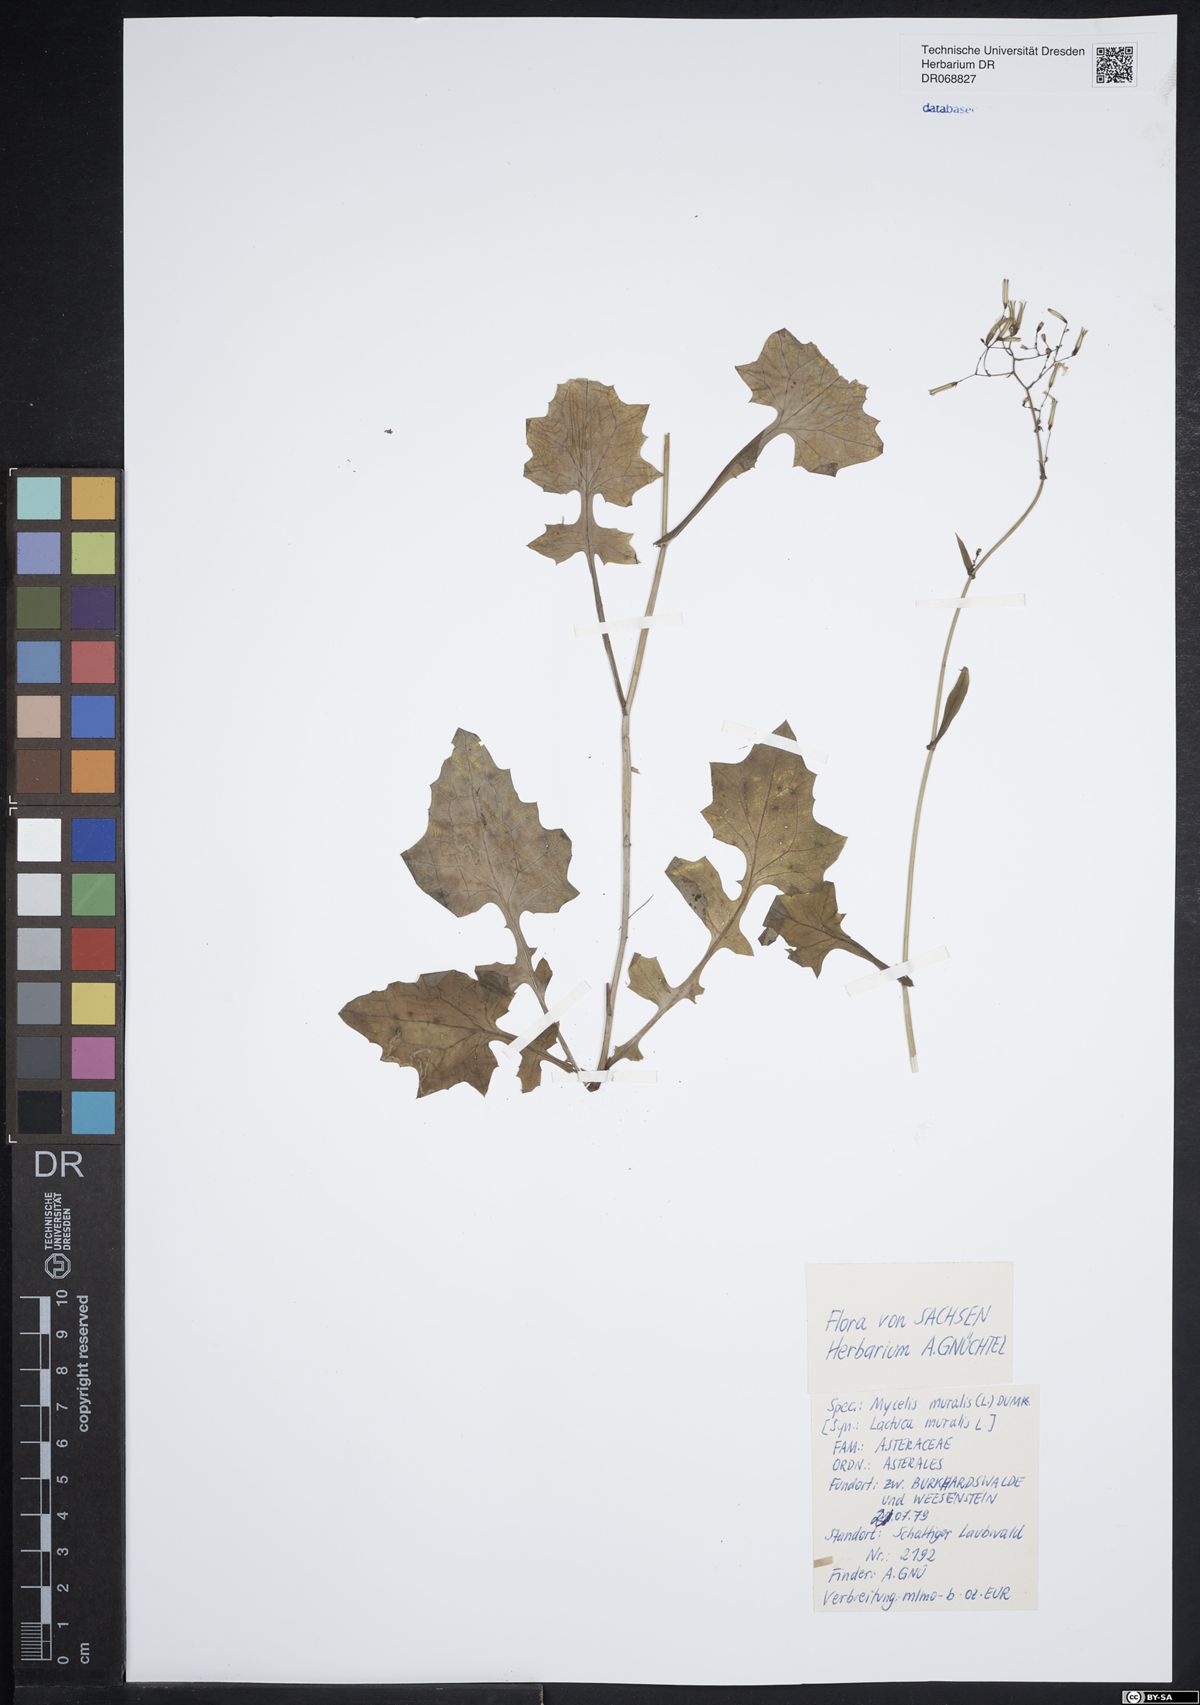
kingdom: Plantae
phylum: Tracheophyta
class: Magnoliopsida
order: Asterales
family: Asteraceae
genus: Mycelis
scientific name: Mycelis muralis
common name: Wall lettuce
